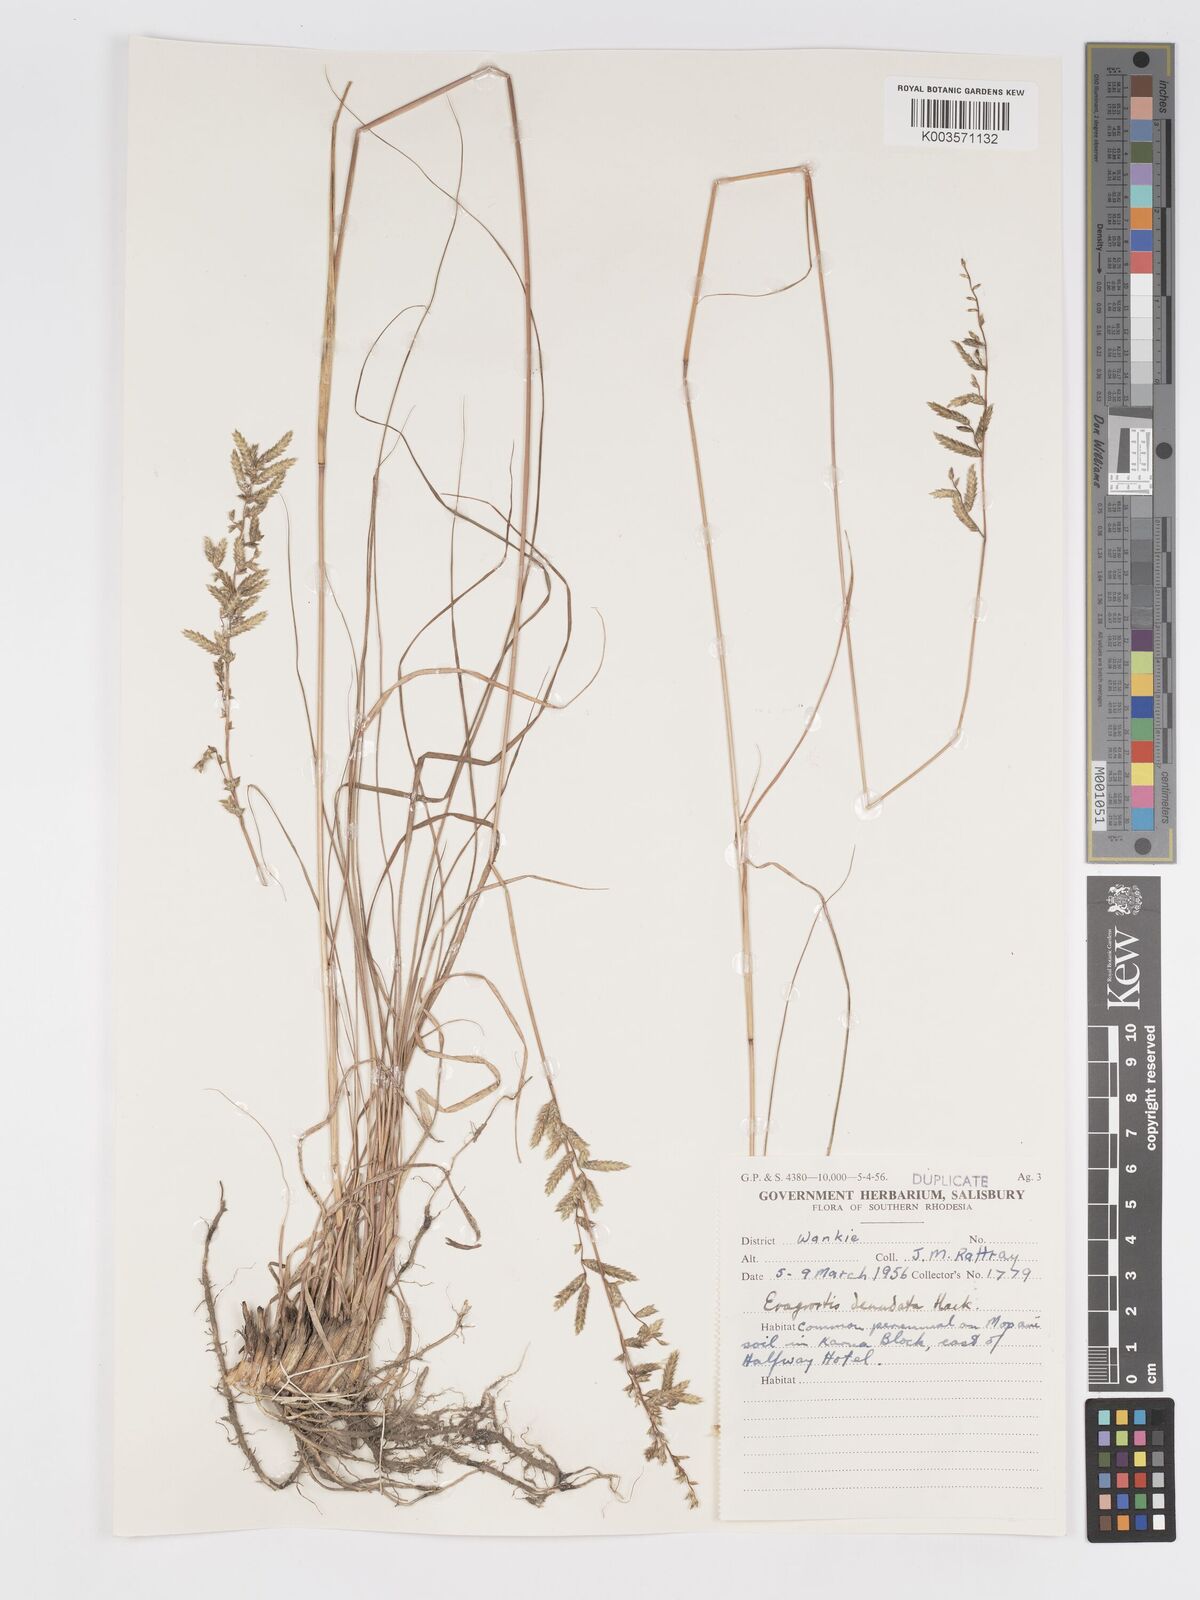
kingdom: Plantae
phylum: Tracheophyta
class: Liliopsida
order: Poales
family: Poaceae
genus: Eragrostis
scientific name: Eragrostis nindensis
